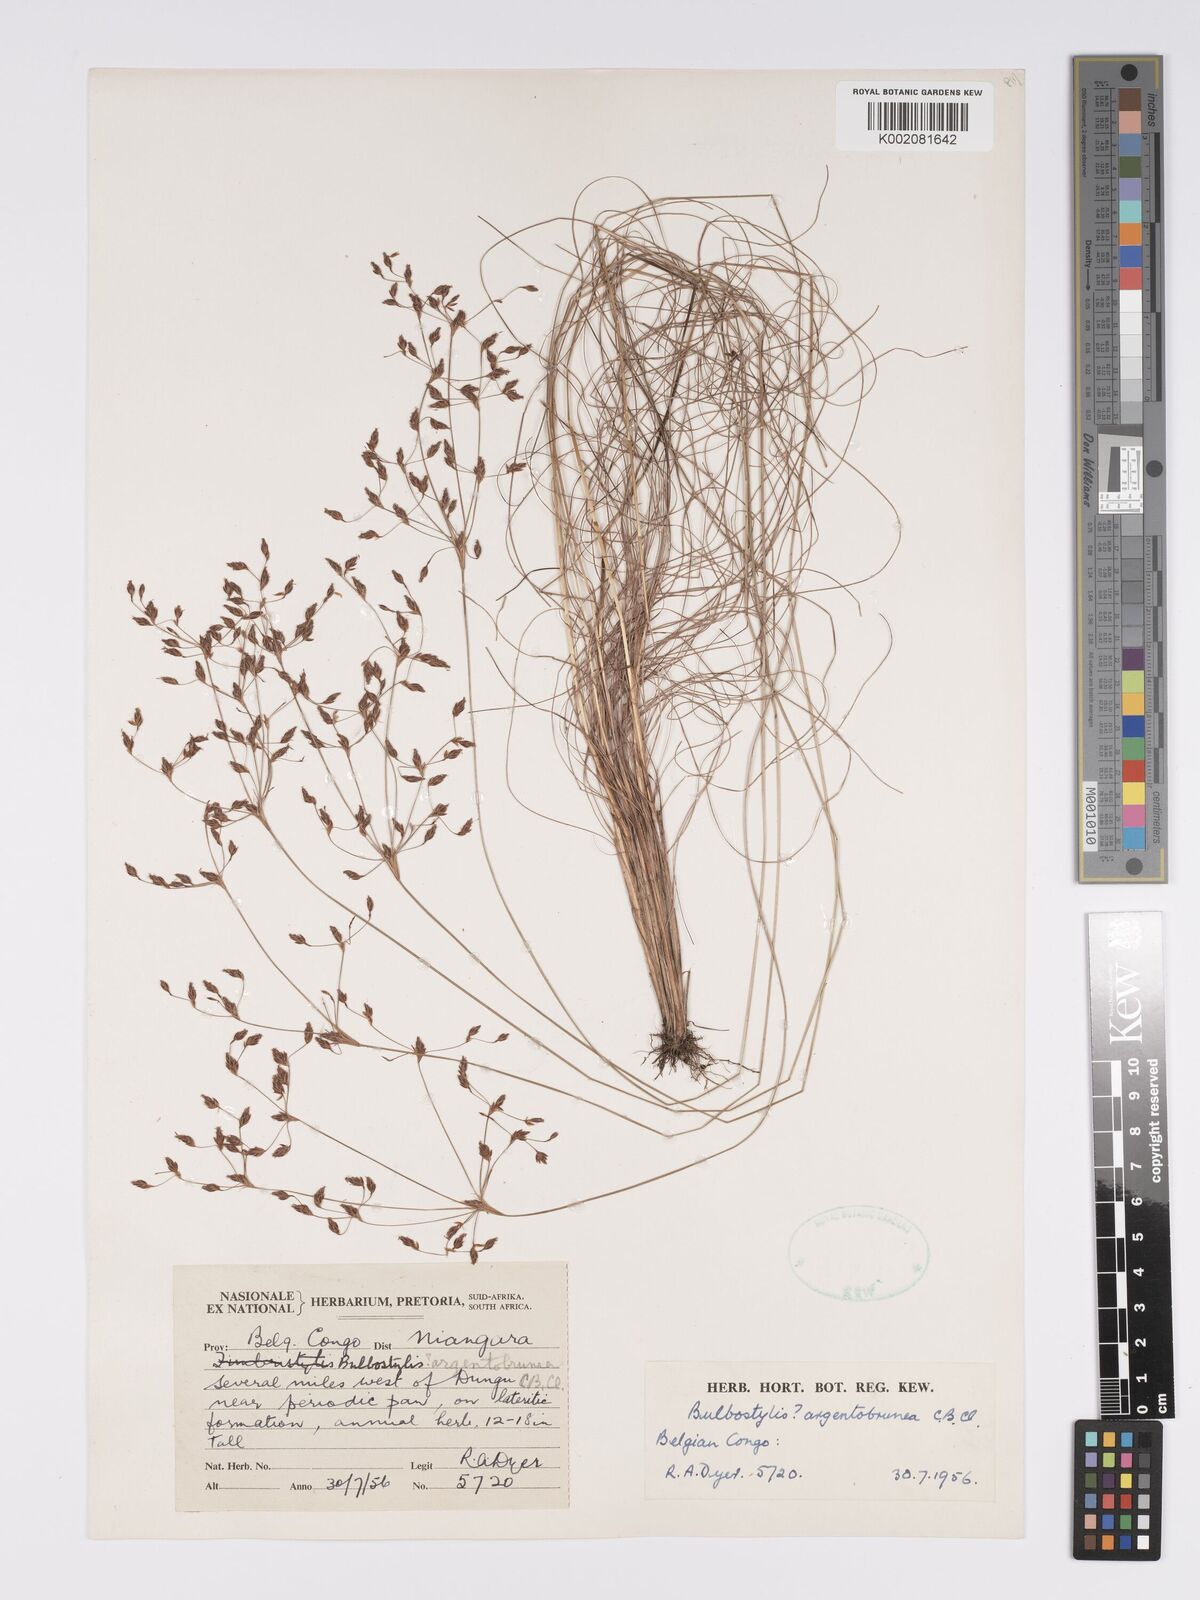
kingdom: Plantae
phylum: Tracheophyta
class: Liliopsida
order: Poales
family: Cyperaceae
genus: Bulbostylis
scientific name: Bulbostylis argenteobrunea
